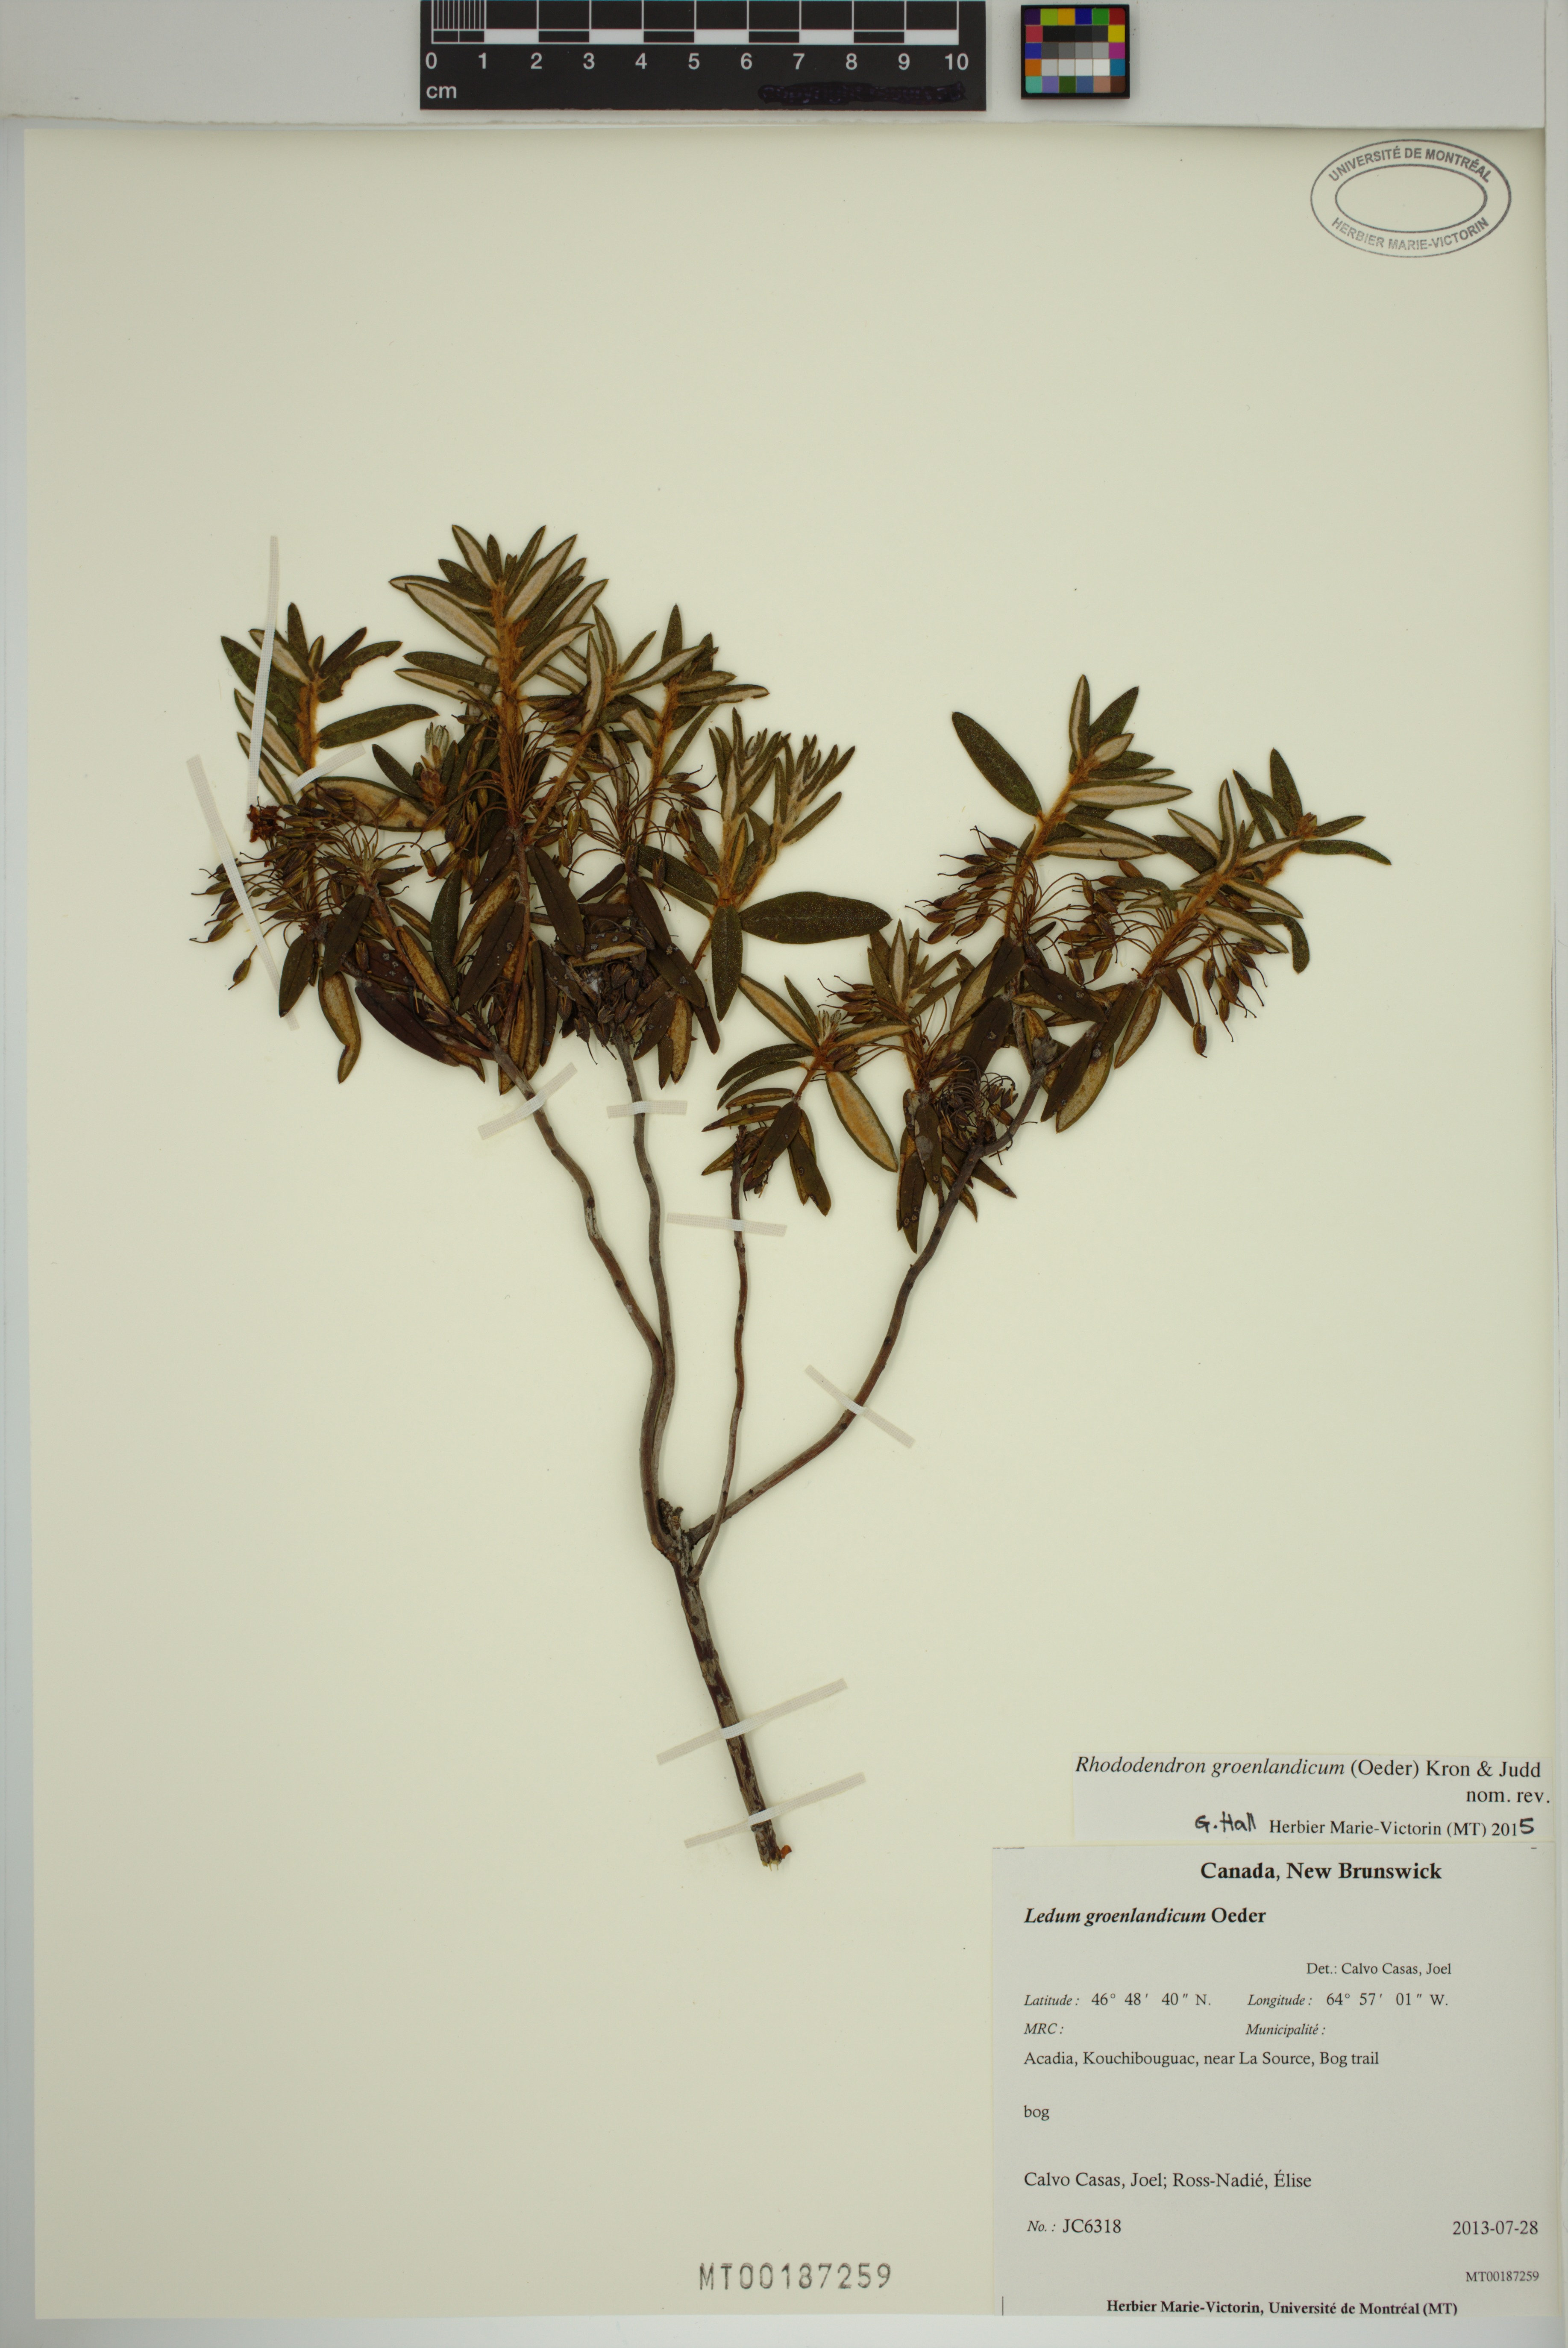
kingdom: Plantae
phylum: Tracheophyta
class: Magnoliopsida
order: Ericales
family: Ericaceae
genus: Rhododendron
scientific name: Rhododendron groenlandicum
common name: Bog labrador tea
